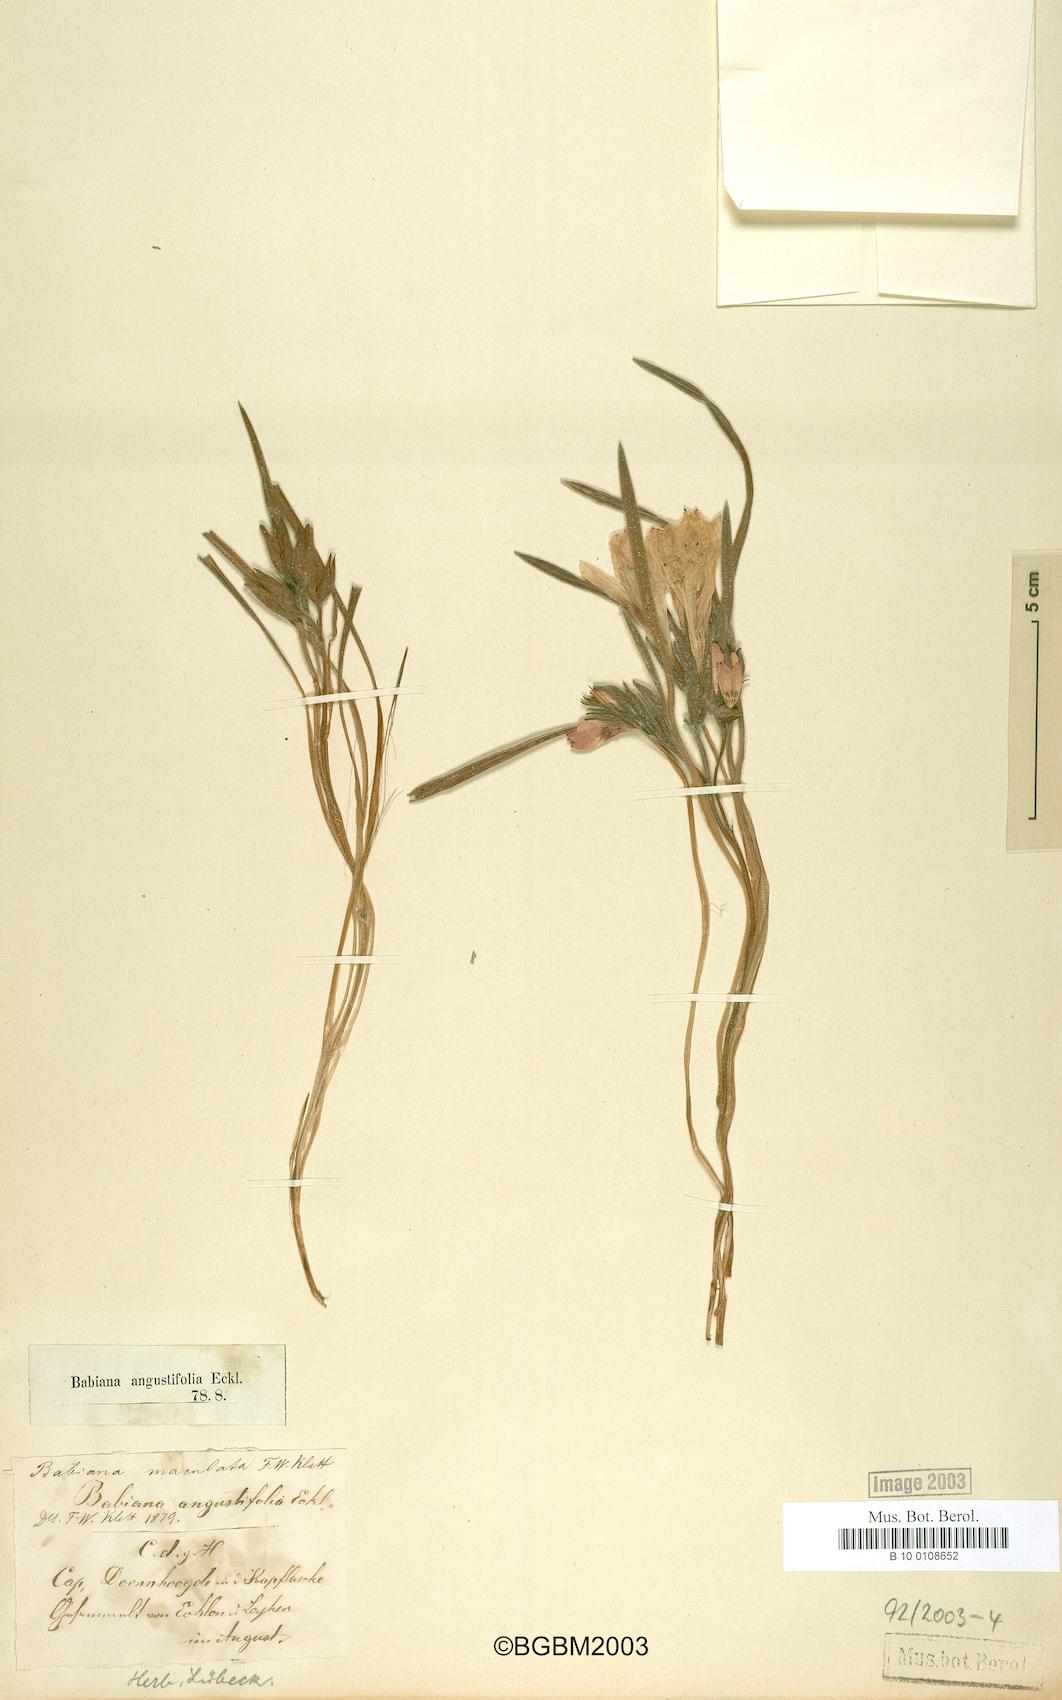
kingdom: Plantae
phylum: Tracheophyta
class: Liliopsida
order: Asparagales
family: Iridaceae
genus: Babiana
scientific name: Babiana angustifolia
